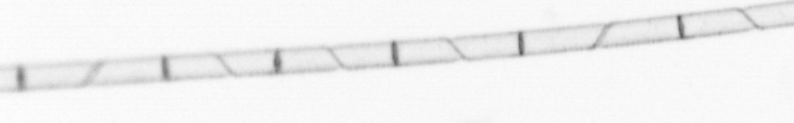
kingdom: Chromista
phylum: Ochrophyta
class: Bacillariophyceae
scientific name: Bacillariophyceae
